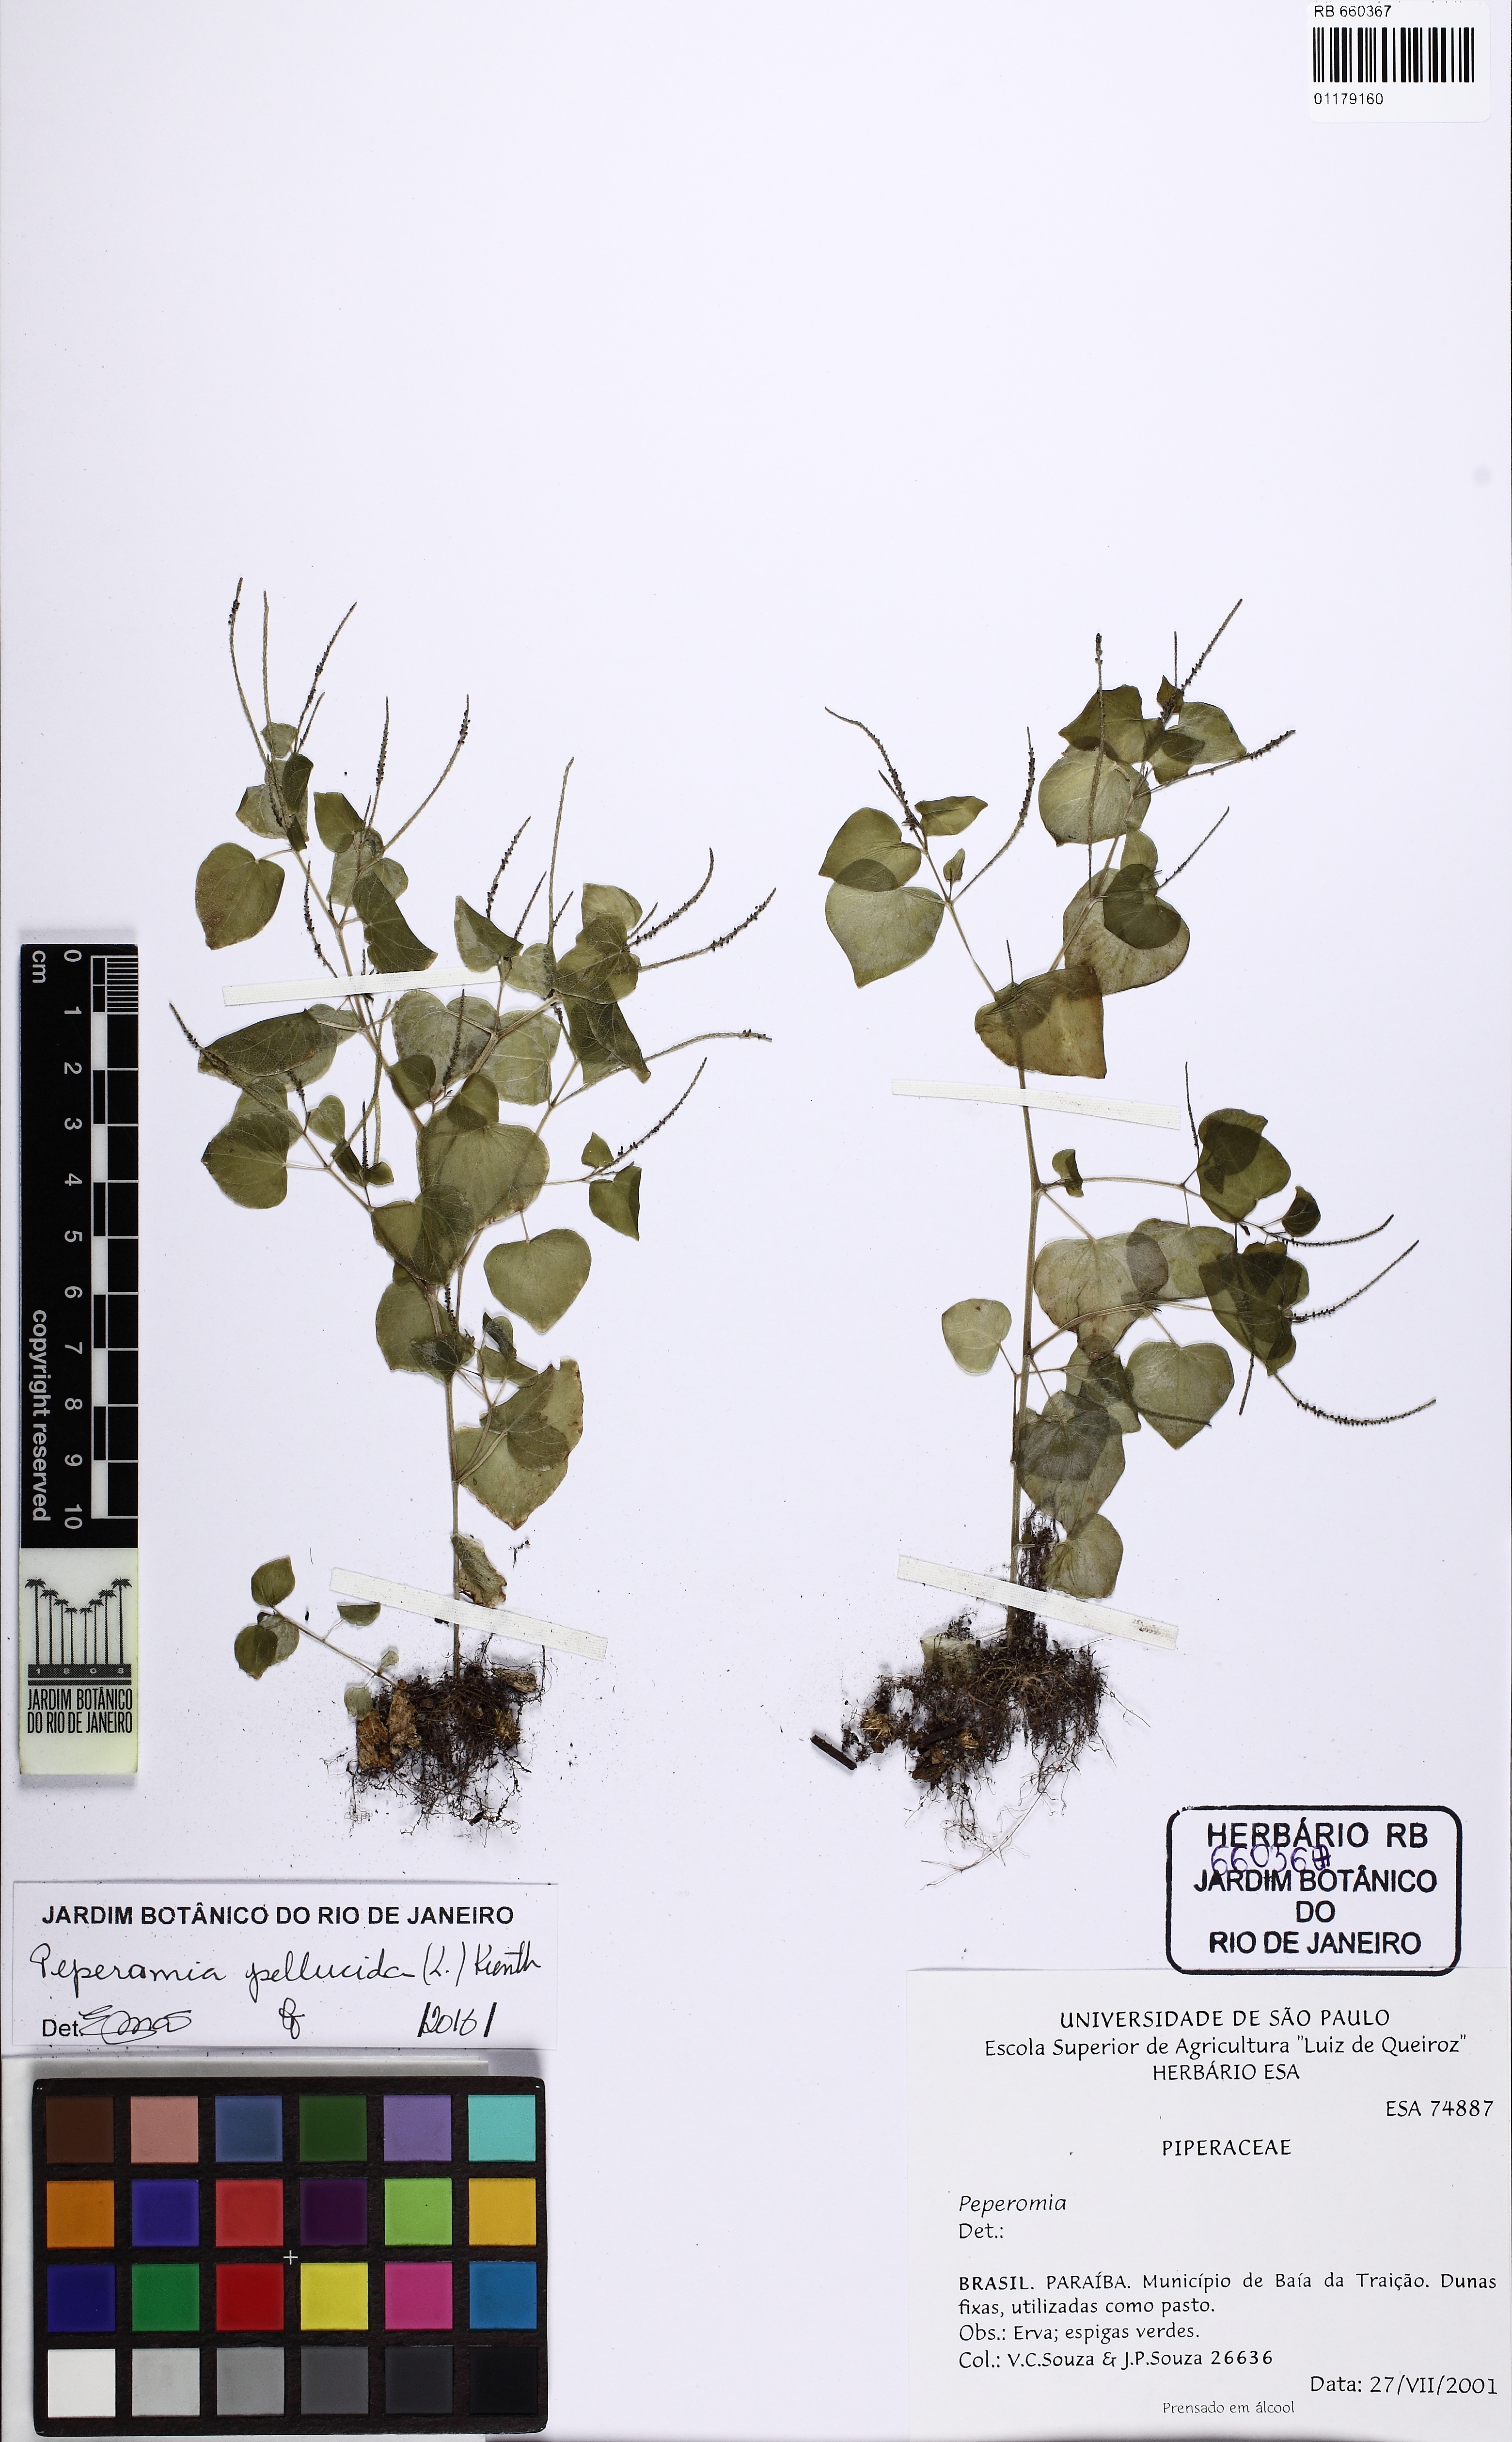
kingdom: Plantae
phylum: Tracheophyta
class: Magnoliopsida
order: Piperales
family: Piperaceae
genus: Peperomia
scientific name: Peperomia pellucida
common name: Man to man
